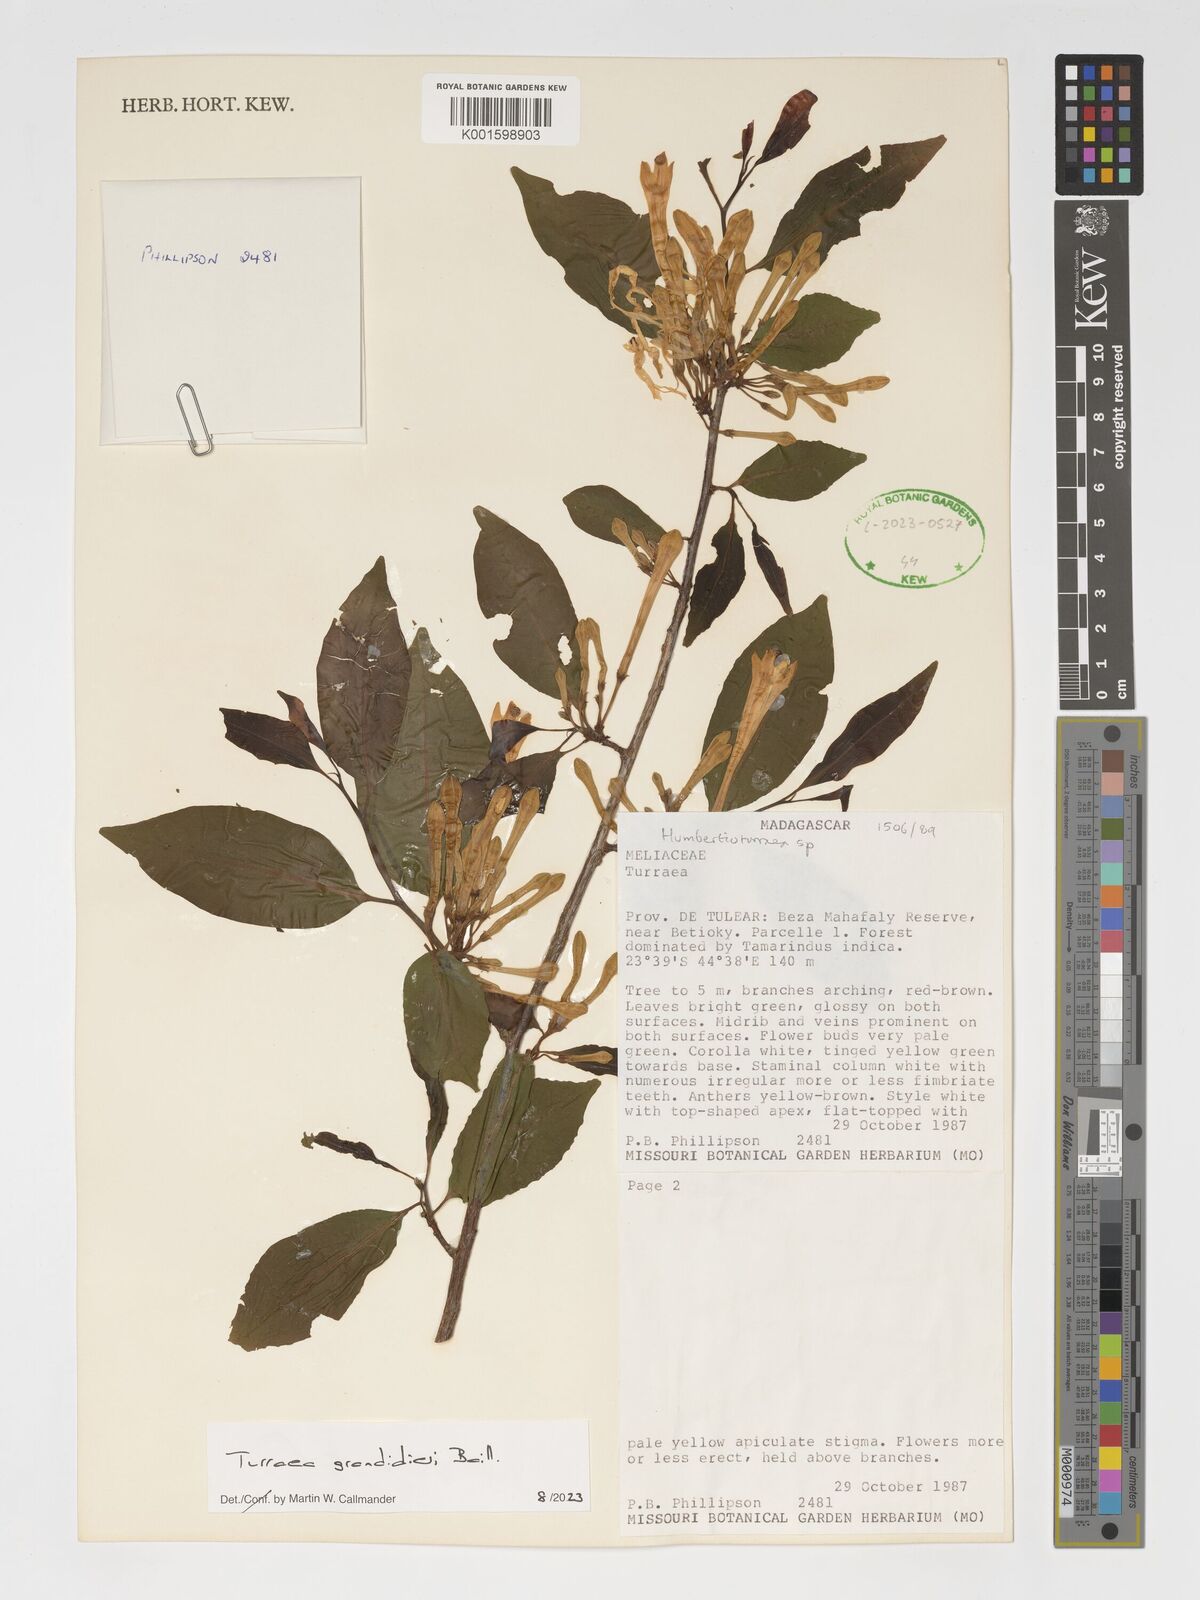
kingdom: Plantae
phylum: Tracheophyta
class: Magnoliopsida
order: Sapindales
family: Meliaceae
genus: Humbertioturraea
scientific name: Humbertioturraea grandidieri
